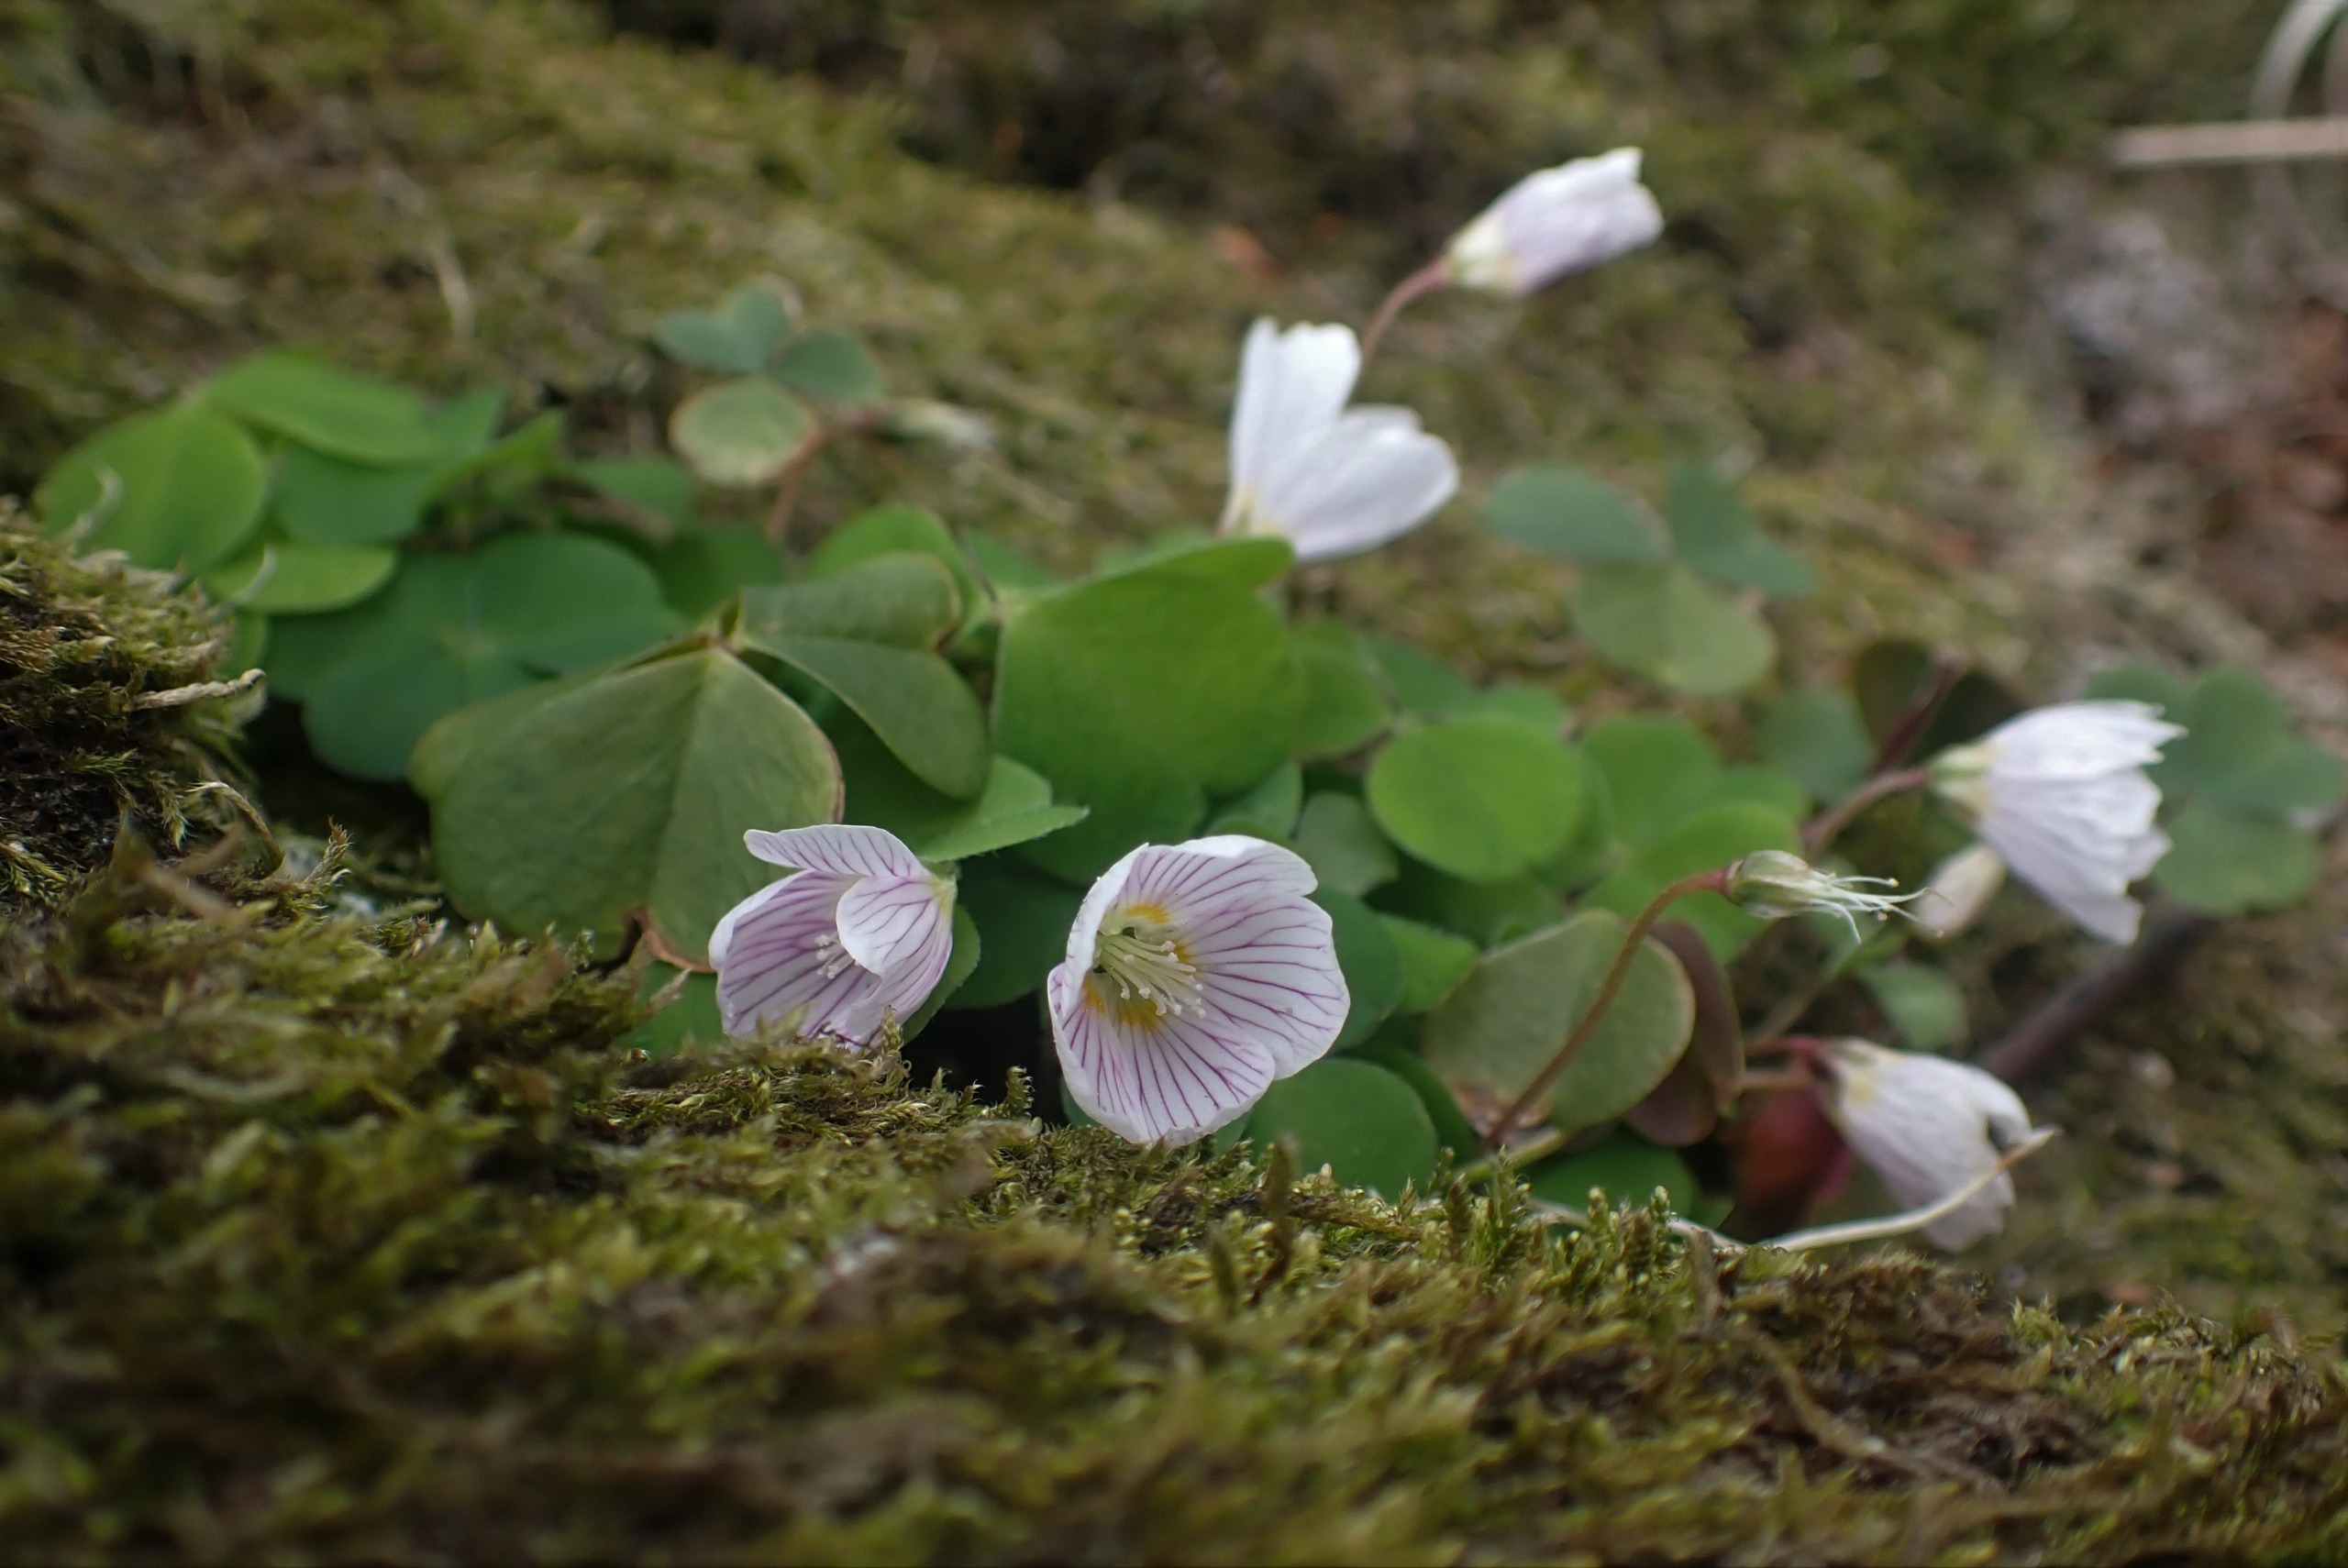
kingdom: Plantae
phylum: Tracheophyta
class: Magnoliopsida
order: Oxalidales
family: Oxalidaceae
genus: Oxalis
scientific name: Oxalis acetosella
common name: Skovsyre
